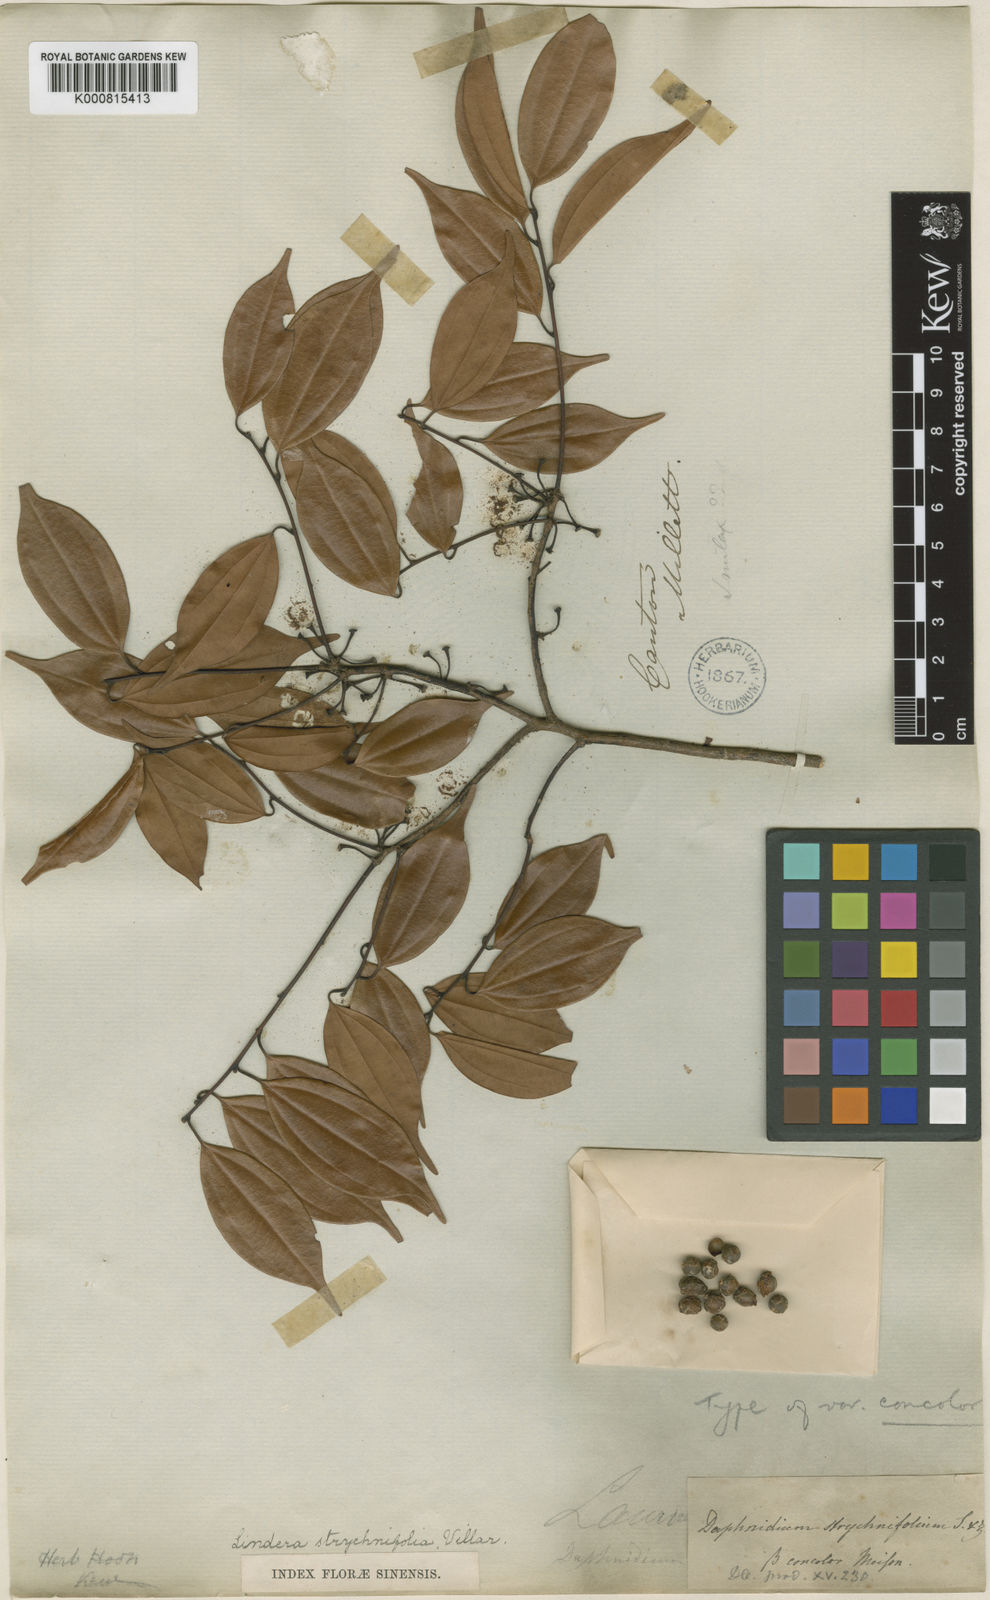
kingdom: Plantae
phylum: Tracheophyta
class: Magnoliopsida
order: Laurales
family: Lauraceae
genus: Lindera
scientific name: Lindera aggregata
